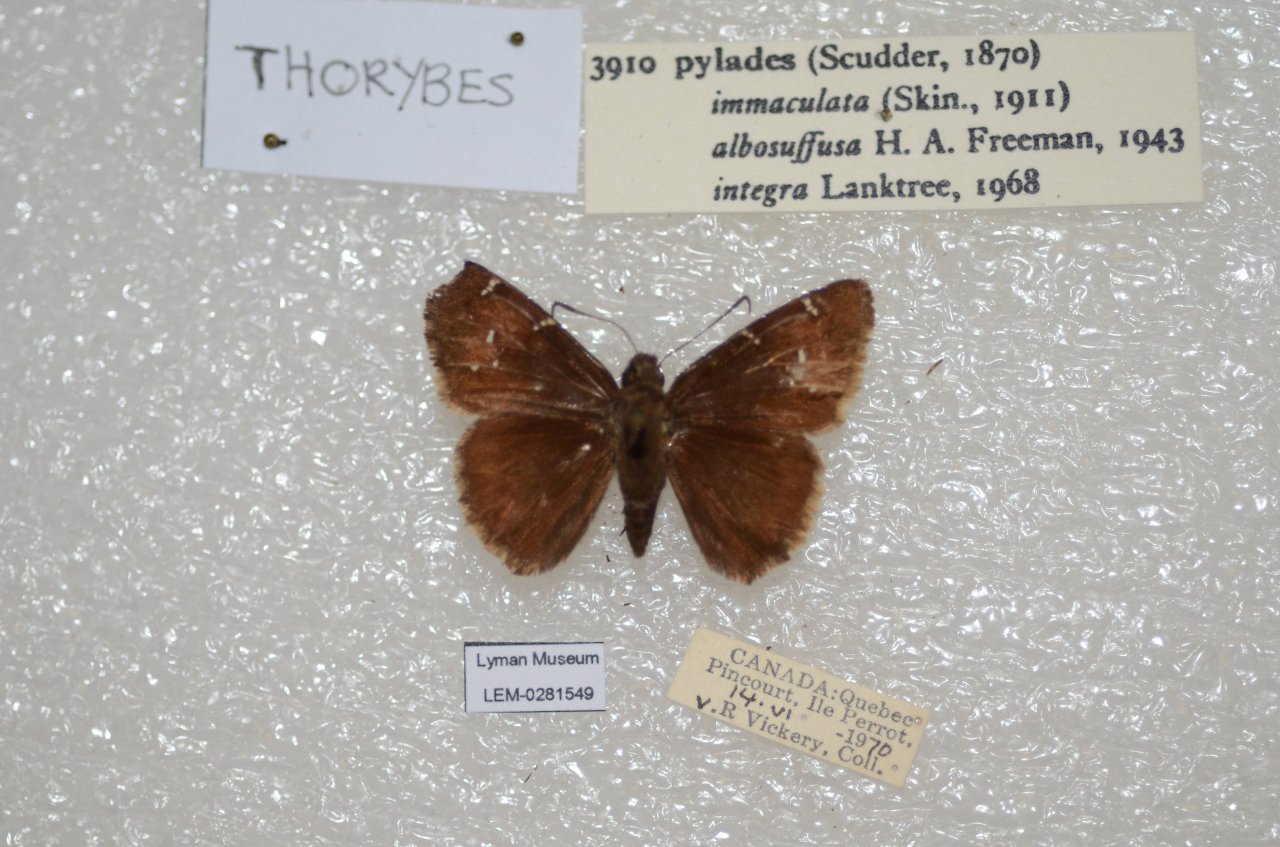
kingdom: Animalia
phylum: Arthropoda
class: Insecta
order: Lepidoptera
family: Hesperiidae
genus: Autochton
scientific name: Autochton
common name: Northern Cloudywing
